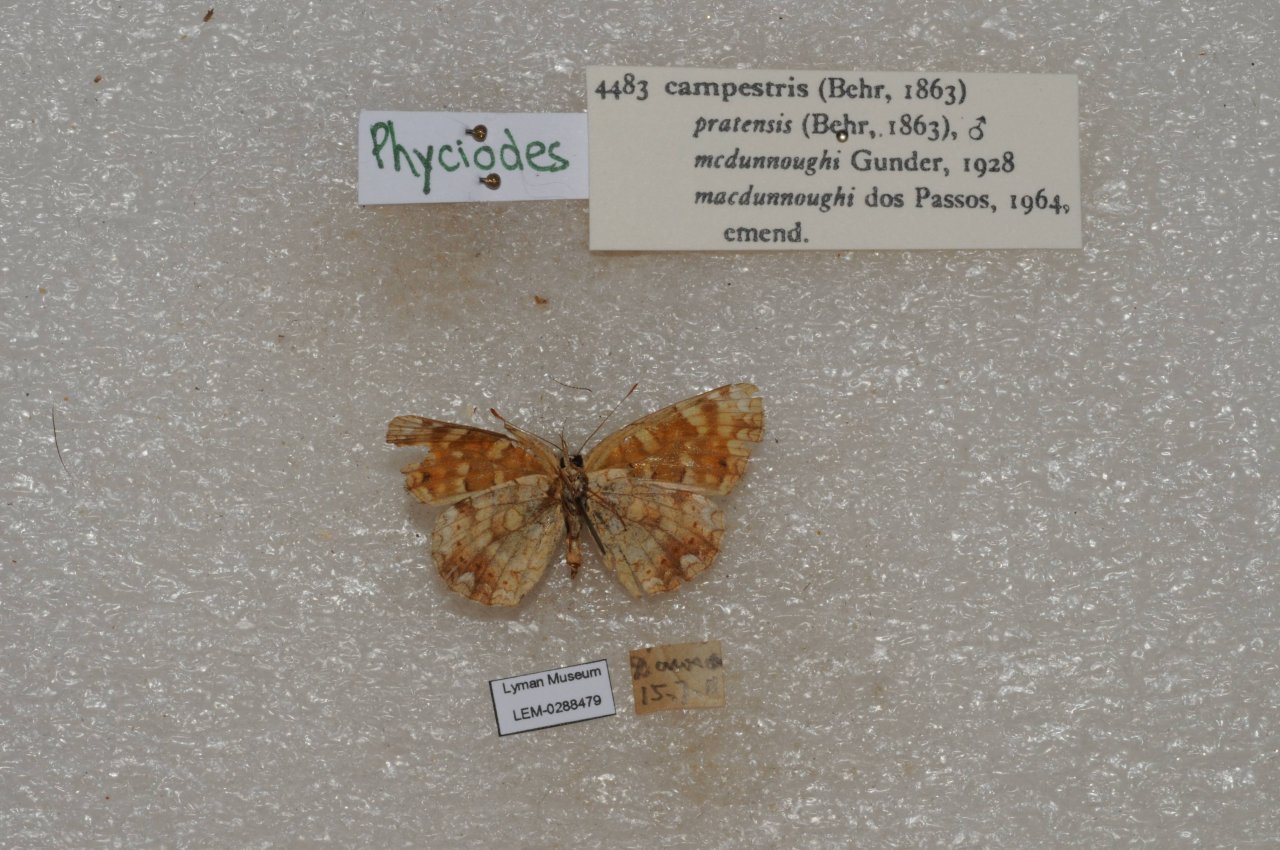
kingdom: Animalia
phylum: Arthropoda
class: Insecta
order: Lepidoptera
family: Nymphalidae
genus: Phyciodes
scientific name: Phyciodes
